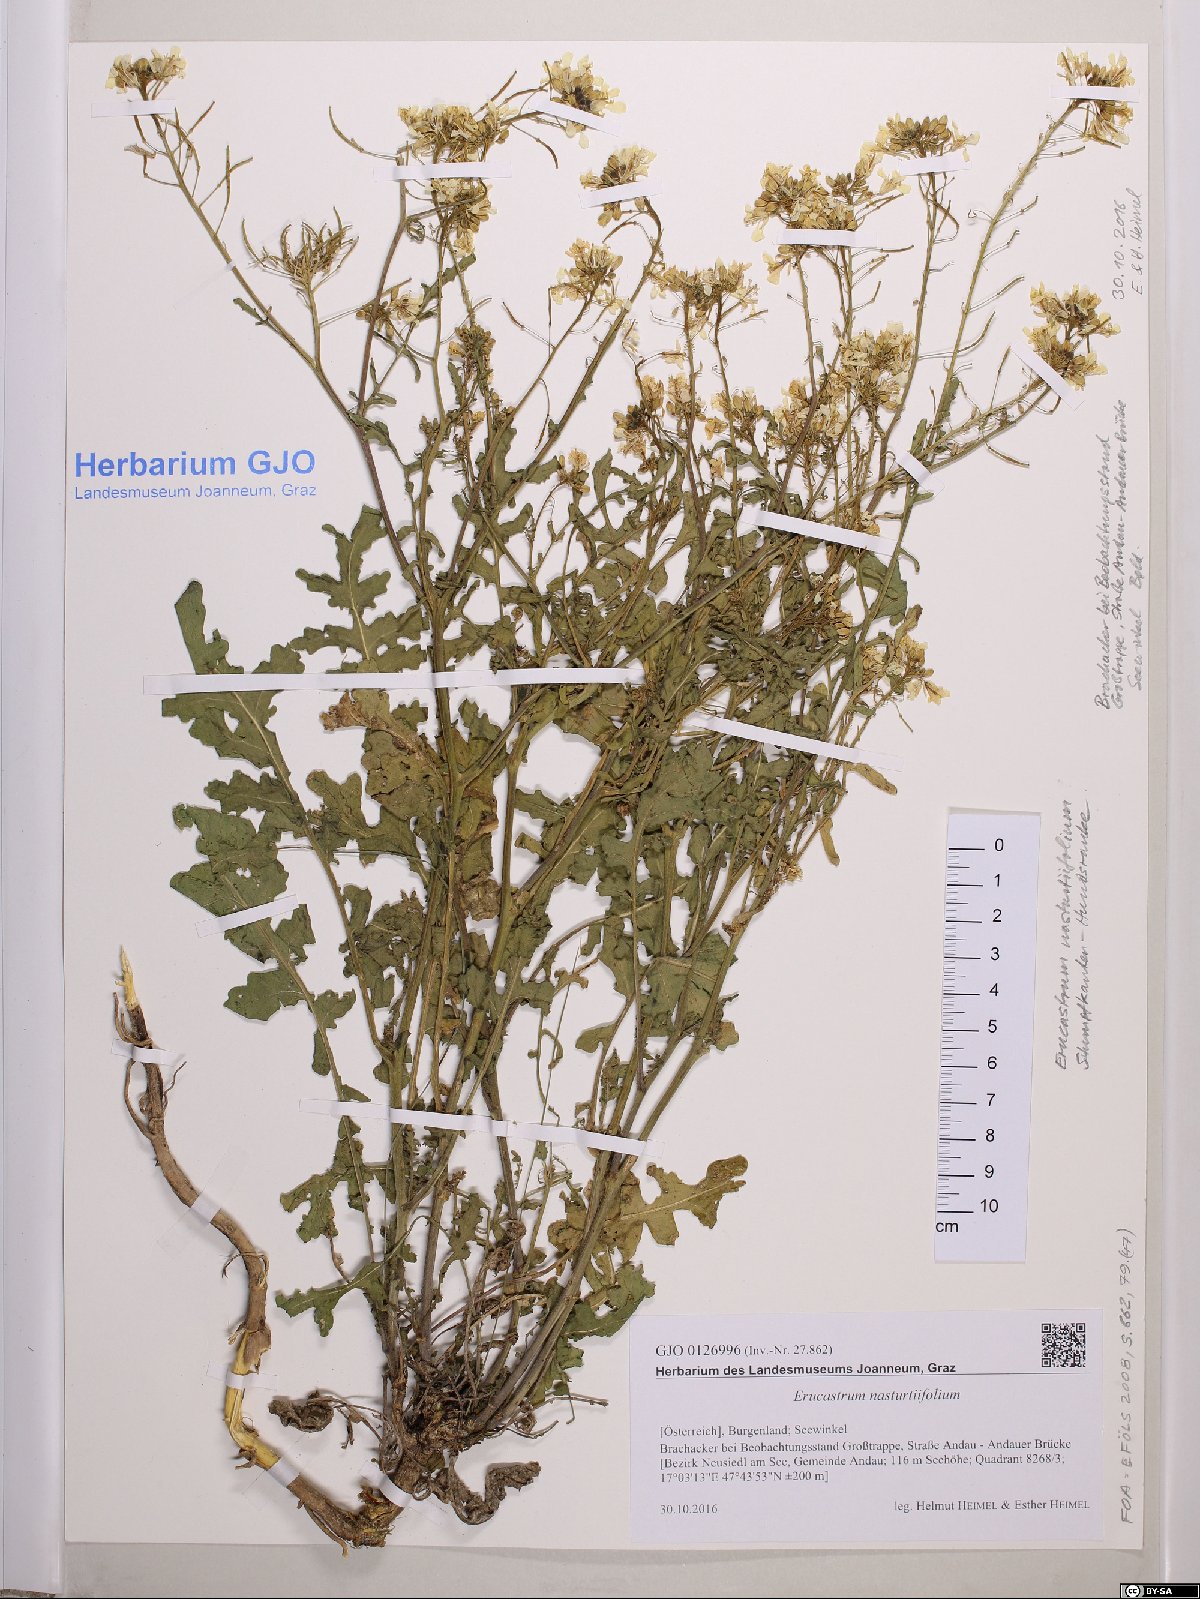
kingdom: Plantae
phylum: Tracheophyta
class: Magnoliopsida
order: Brassicales
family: Brassicaceae
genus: Erucastrum
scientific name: Erucastrum nasturtiifolium
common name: Watercress-leaf rocket
